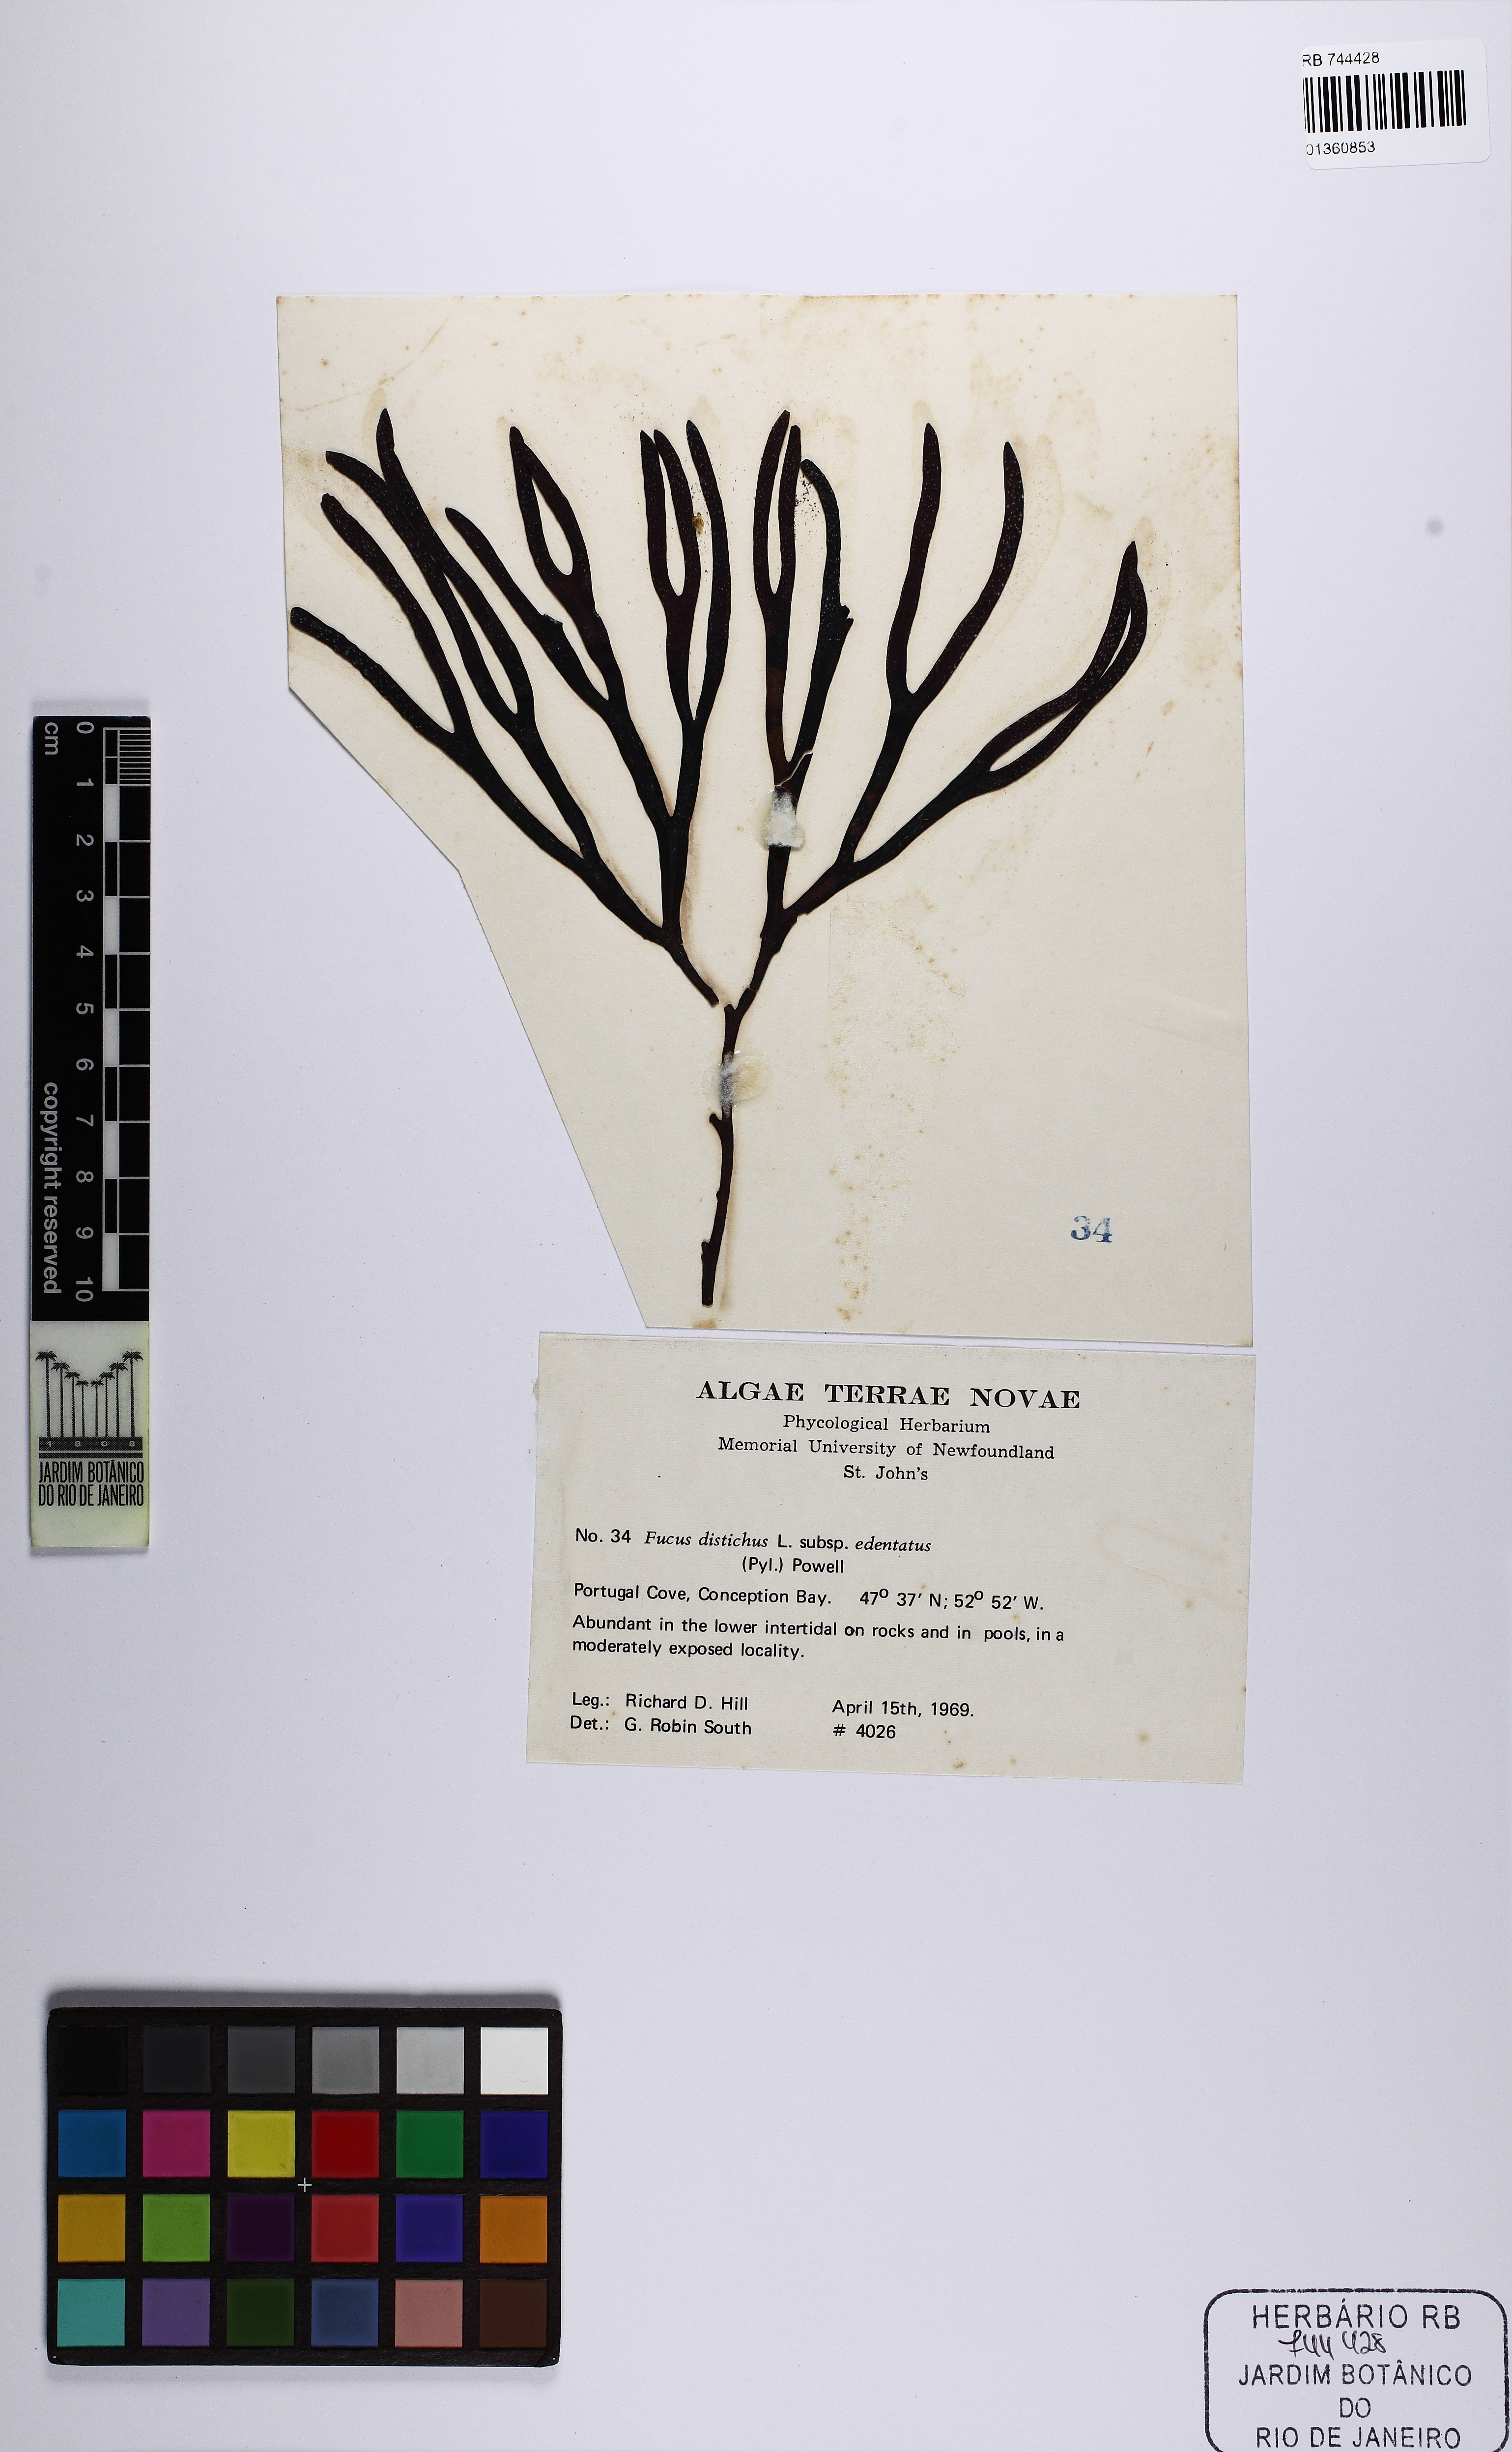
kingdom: Chromista
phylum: Ochrophyta
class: Phaeophyceae
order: Fucales
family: Fucaceae
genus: Fucus
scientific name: Fucus evanescens
